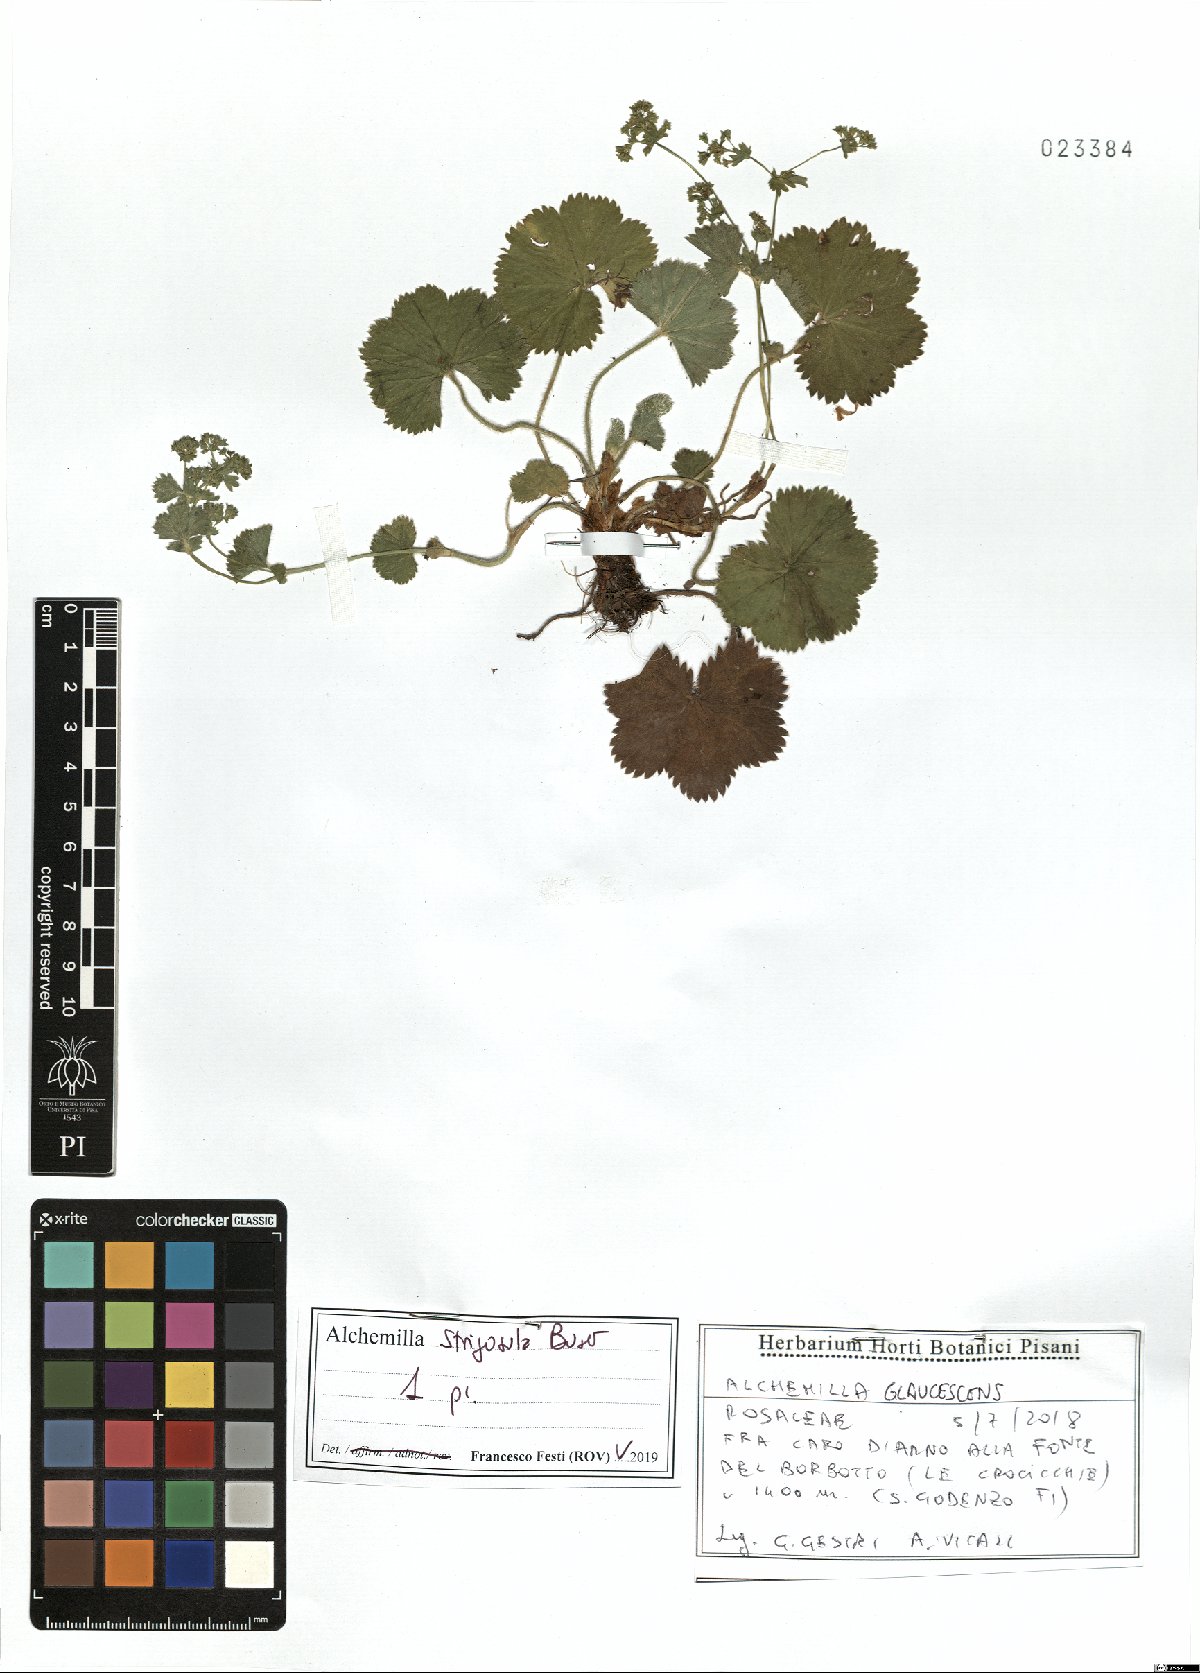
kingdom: Plantae
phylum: Tracheophyta
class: Magnoliopsida
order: Rosales
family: Rosaceae
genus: Alchemilla
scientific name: Alchemilla strigosula
